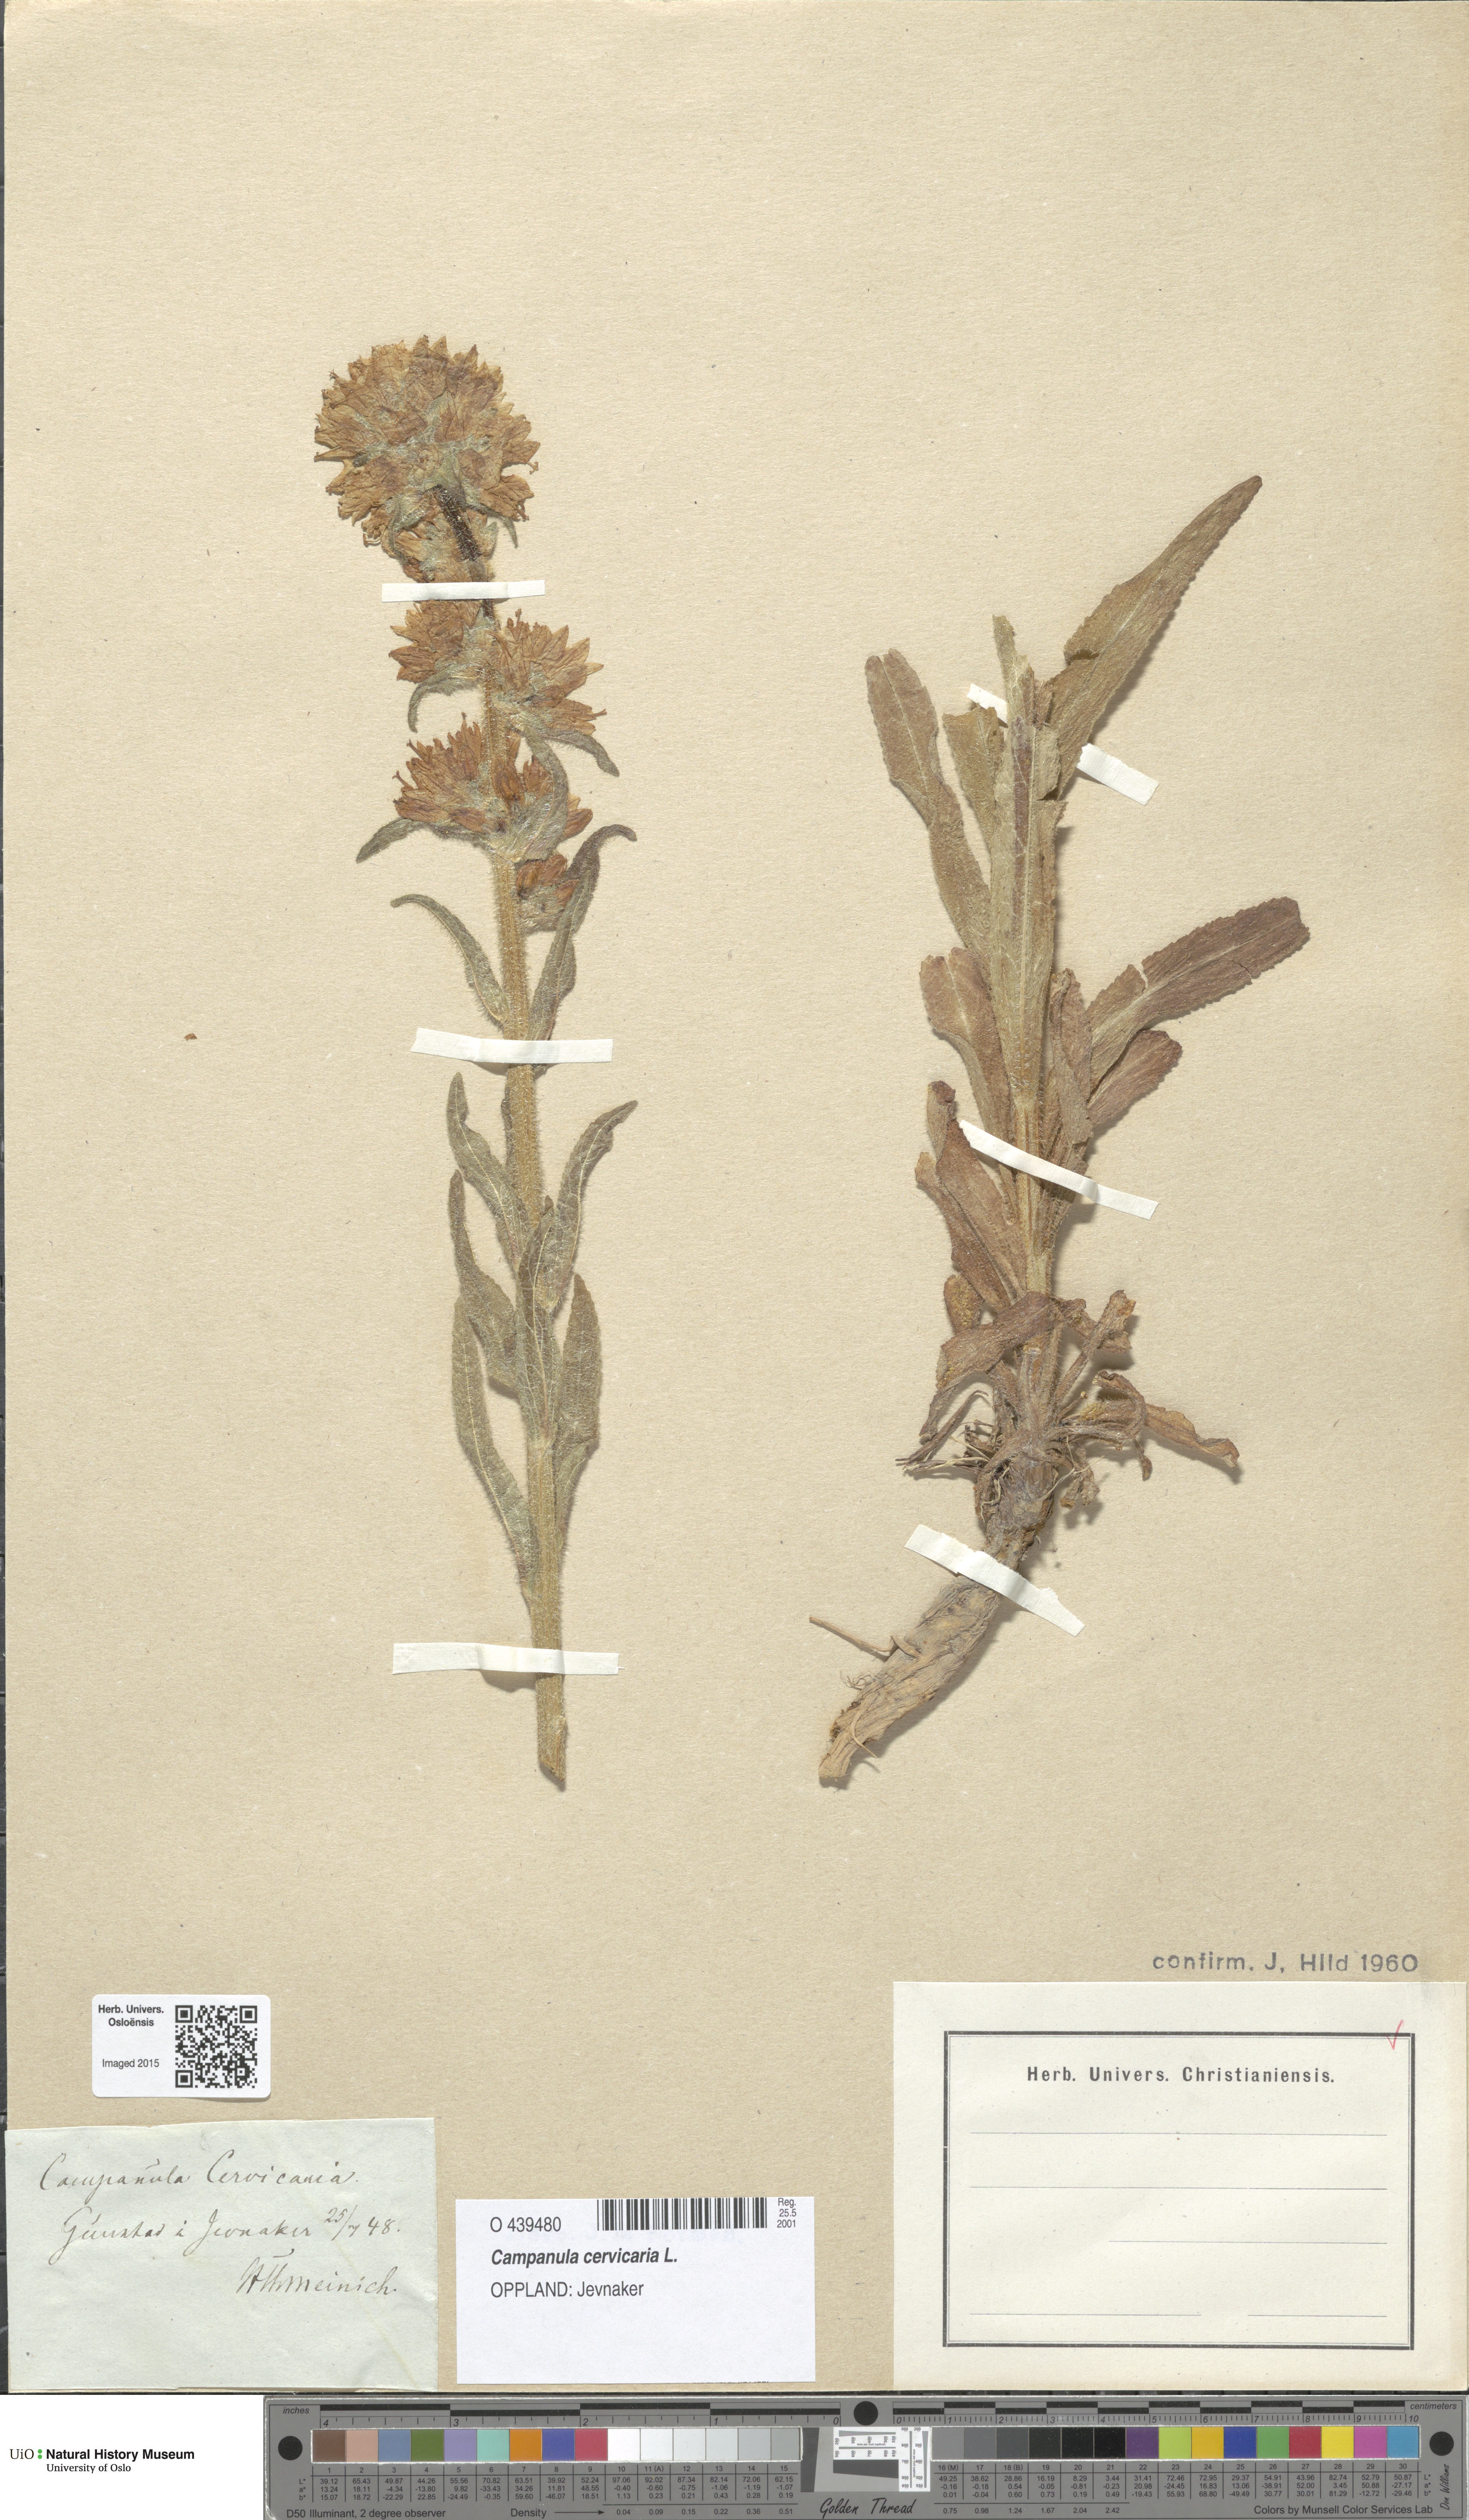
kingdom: Plantae
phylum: Tracheophyta
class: Magnoliopsida
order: Asterales
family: Campanulaceae
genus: Campanula
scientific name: Campanula cervicaria
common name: Bristly bellflower
